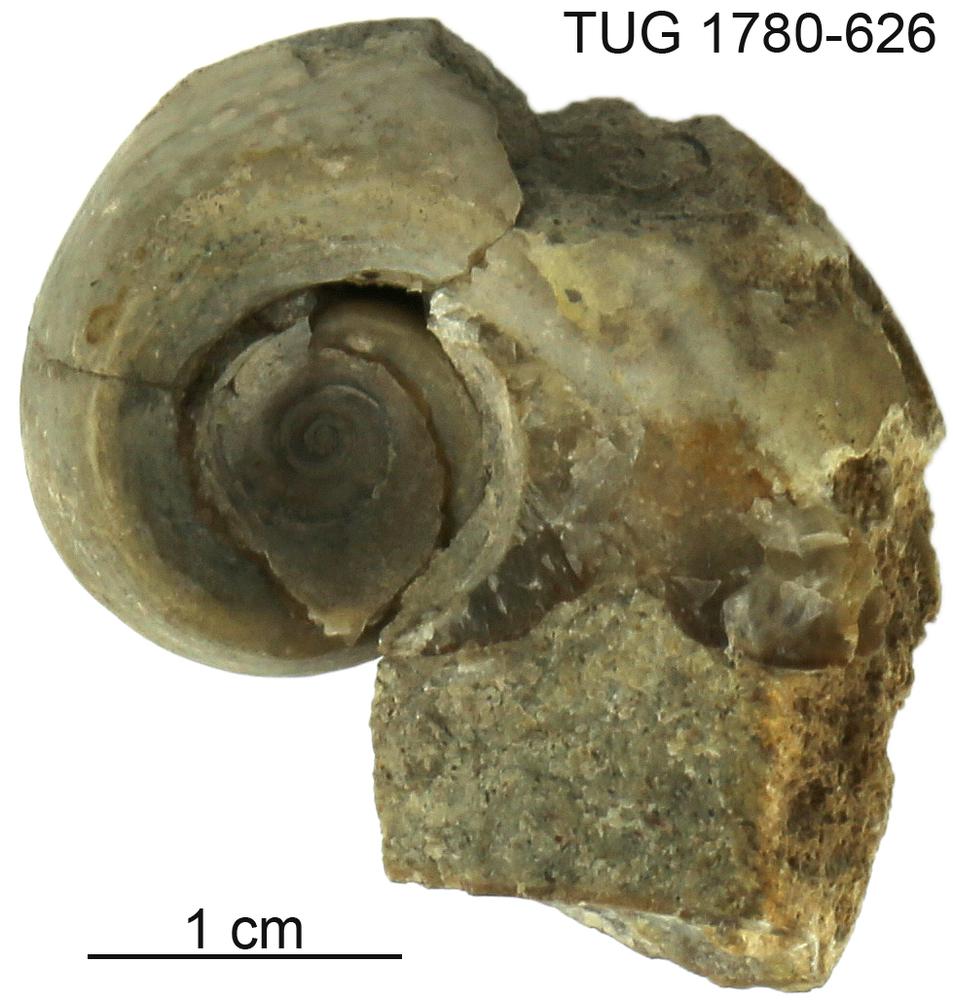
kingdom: Animalia
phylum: Mollusca
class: Gastropoda
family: Bucaniidae
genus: Salpingostoma
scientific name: Salpingostoma locator
